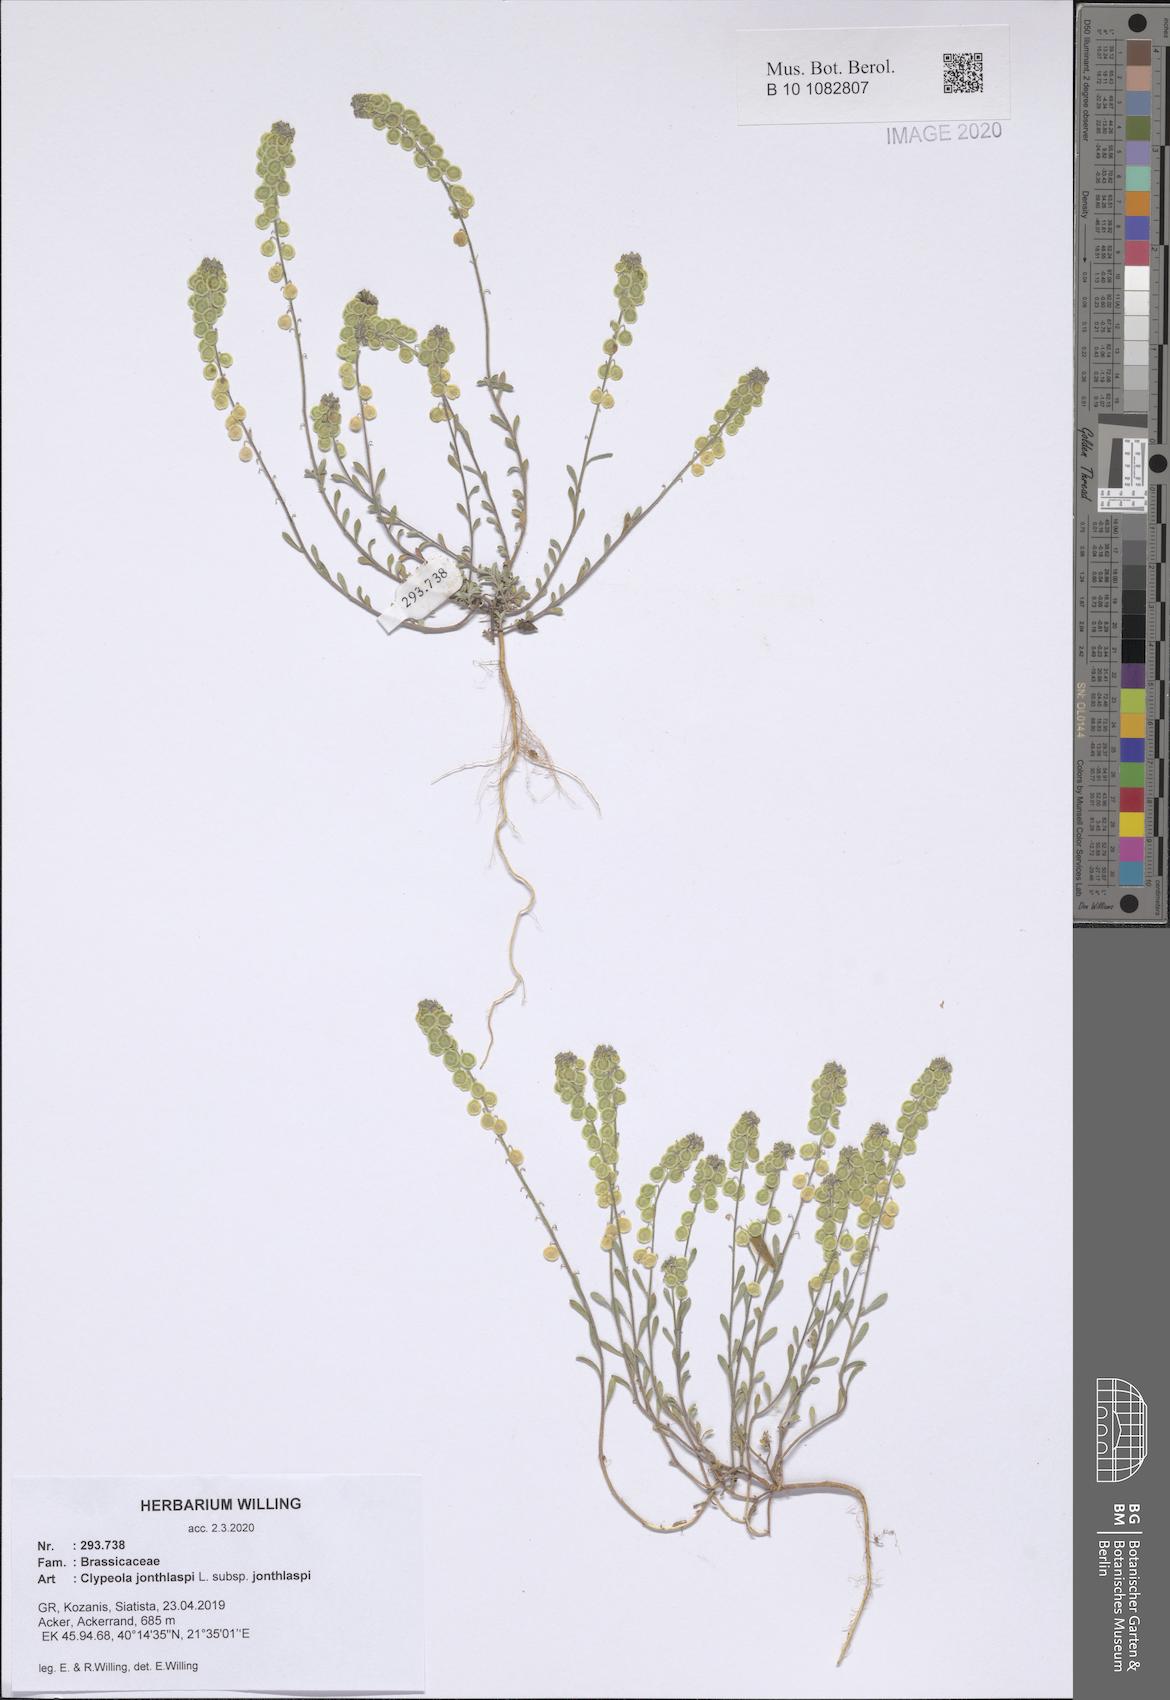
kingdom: Plantae
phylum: Tracheophyta
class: Magnoliopsida
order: Brassicales
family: Brassicaceae
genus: Clypeola
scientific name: Clypeola jonthlaspi
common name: Disk cress
